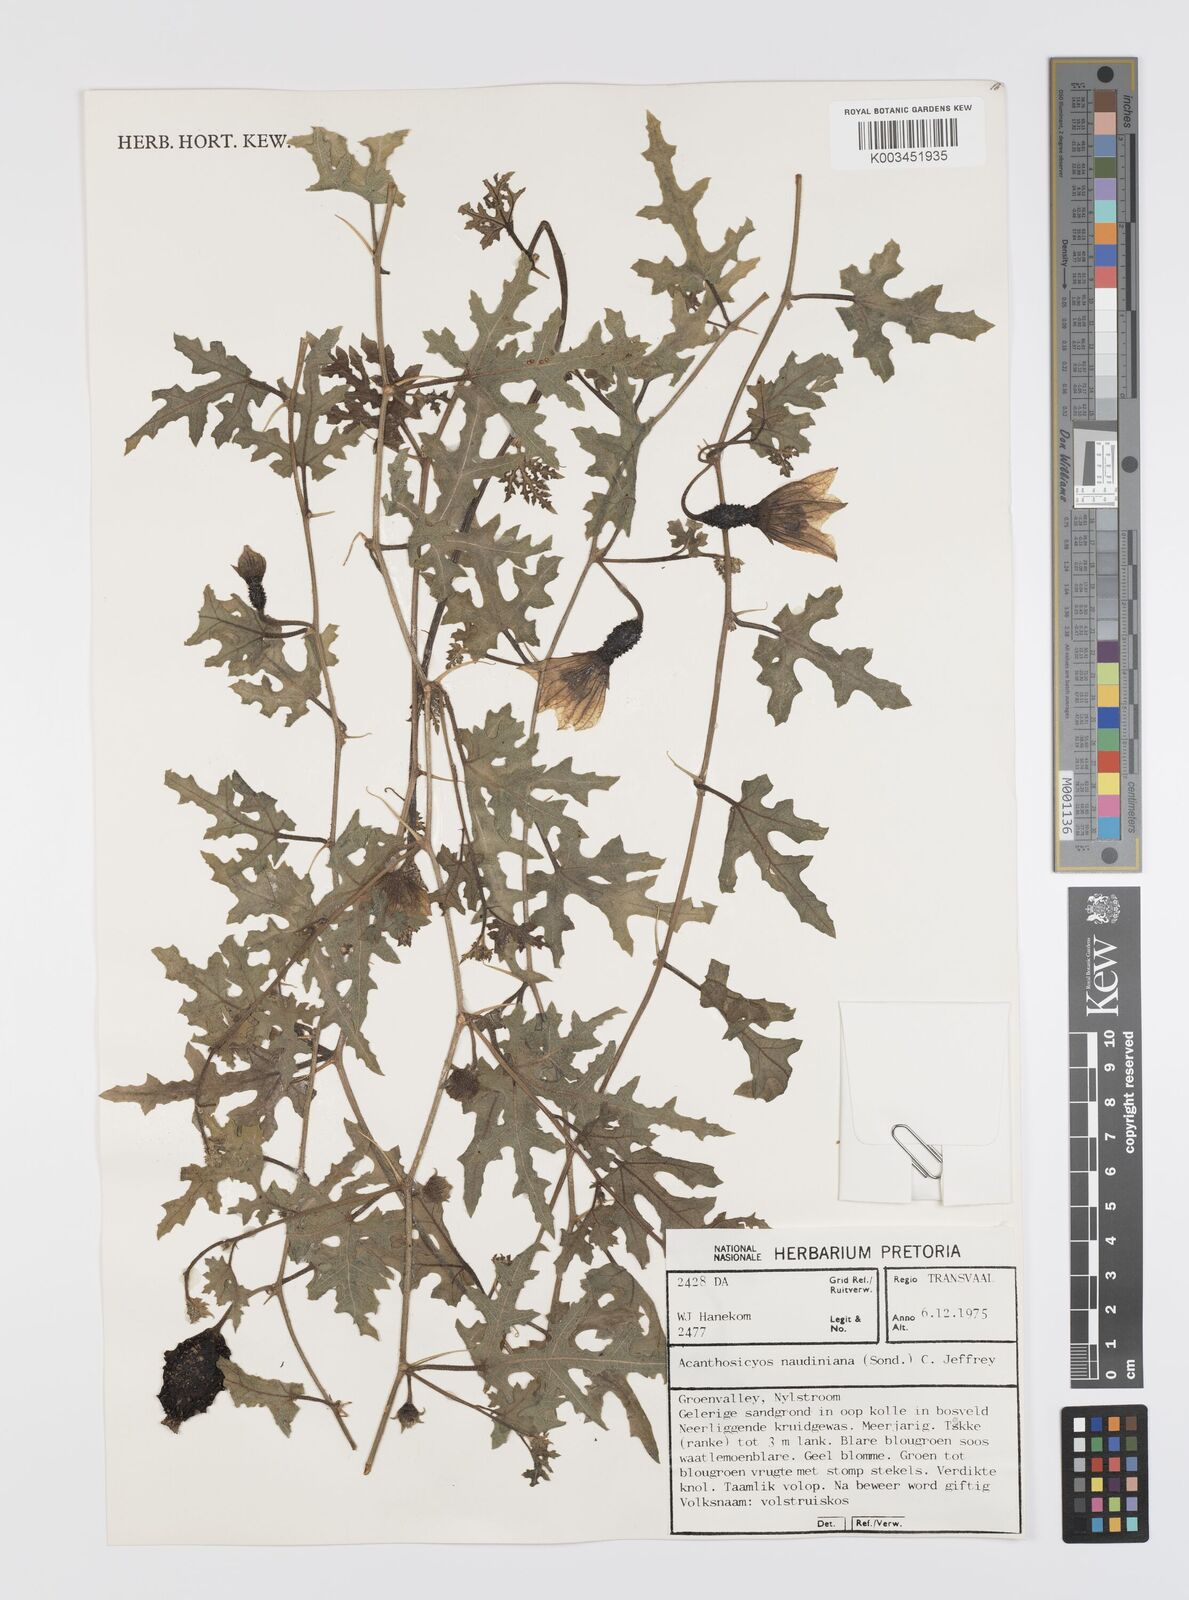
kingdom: Plantae
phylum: Tracheophyta
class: Magnoliopsida
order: Cucurbitales
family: Cucurbitaceae
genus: Citrullus
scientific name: Citrullus naudinianus
